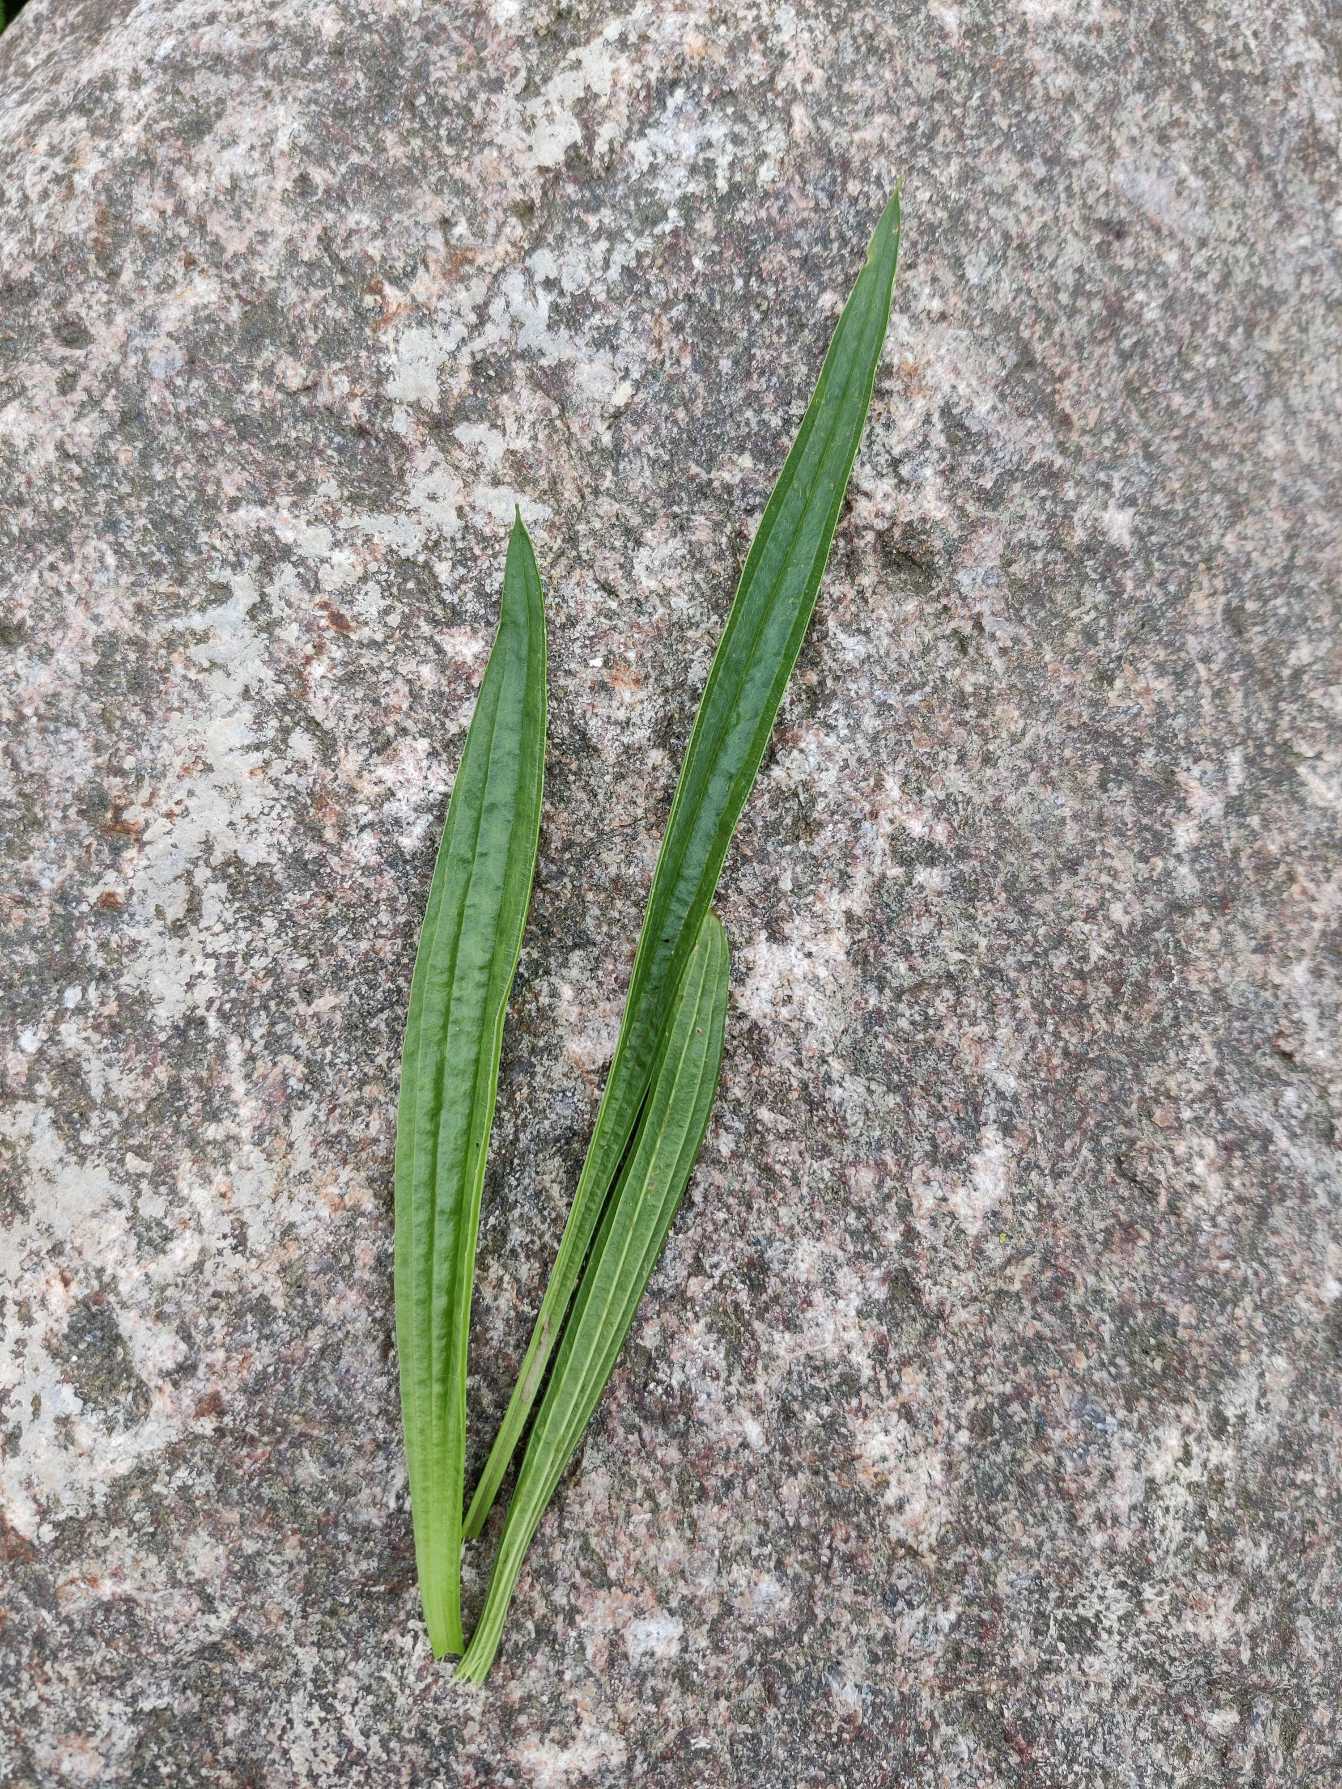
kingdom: Plantae
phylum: Tracheophyta
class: Magnoliopsida
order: Lamiales
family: Plantaginaceae
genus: Plantago
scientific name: Plantago lanceolata
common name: Lancet-vejbred
